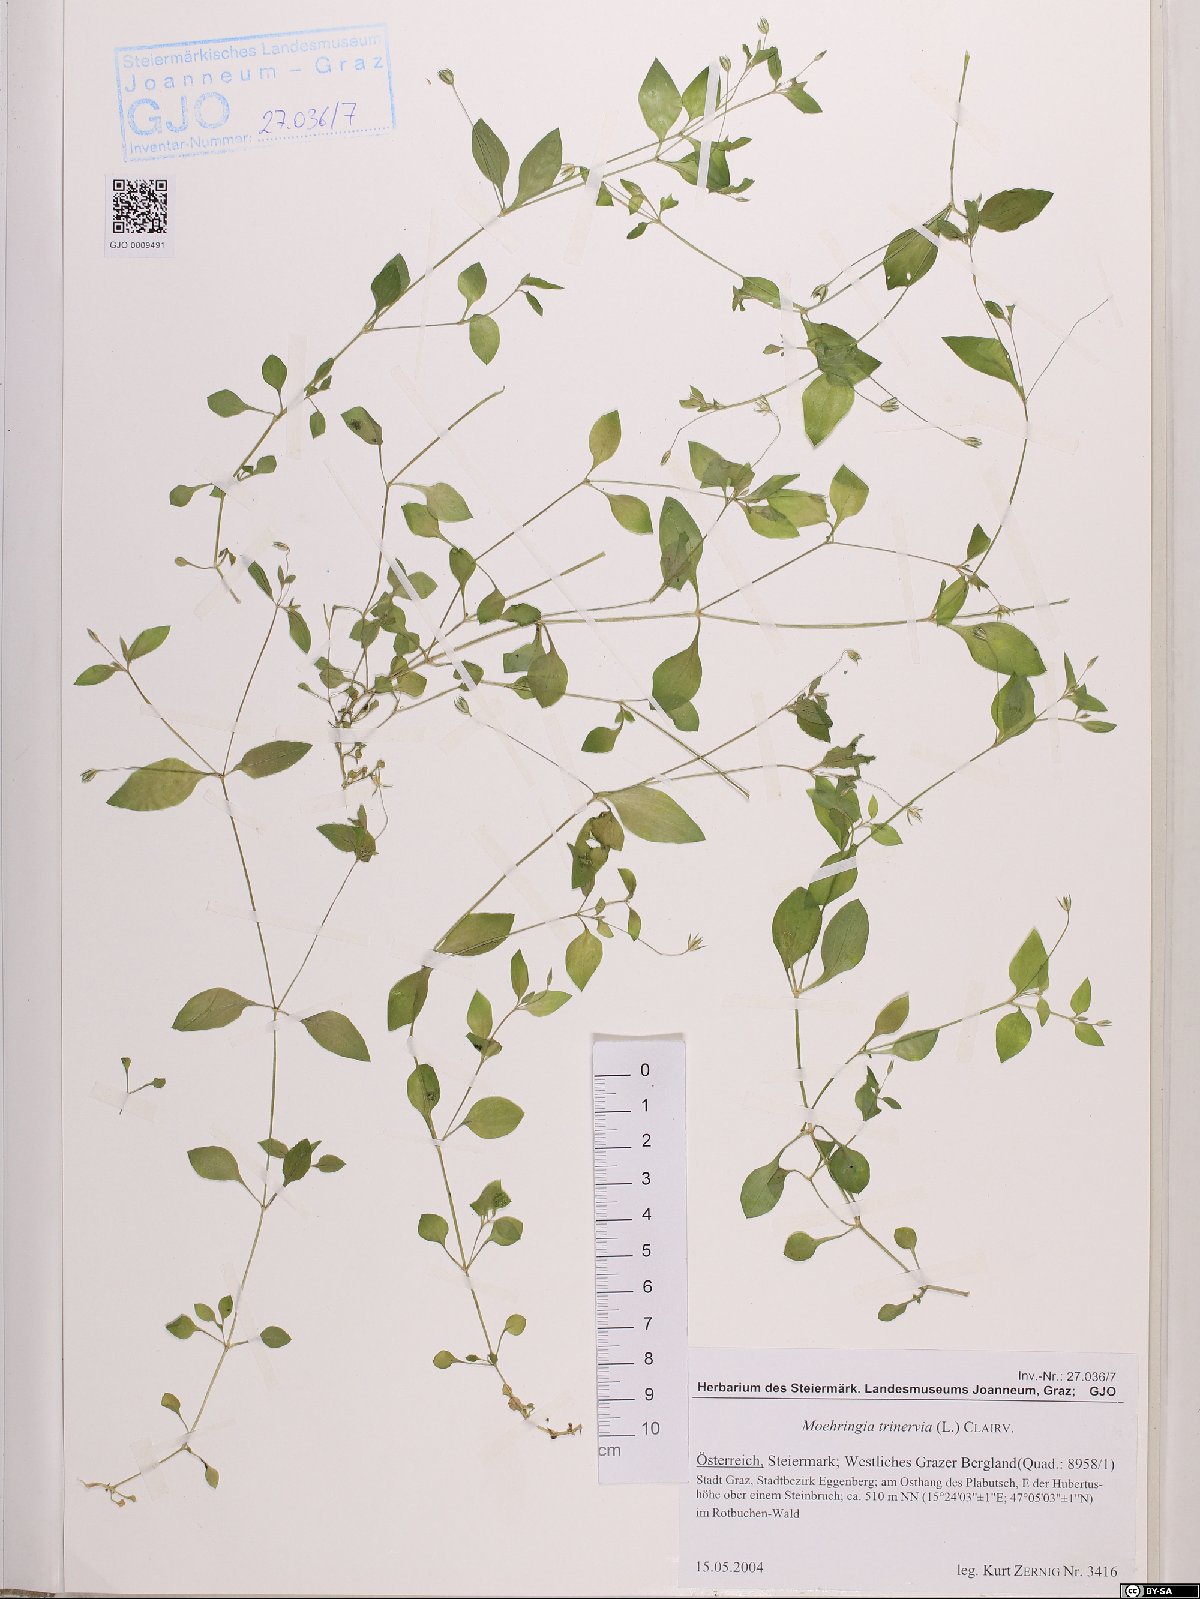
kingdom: Plantae
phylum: Tracheophyta
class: Magnoliopsida
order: Caryophyllales
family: Caryophyllaceae
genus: Moehringia
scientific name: Moehringia trinervia
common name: Three-nerved sandwort
